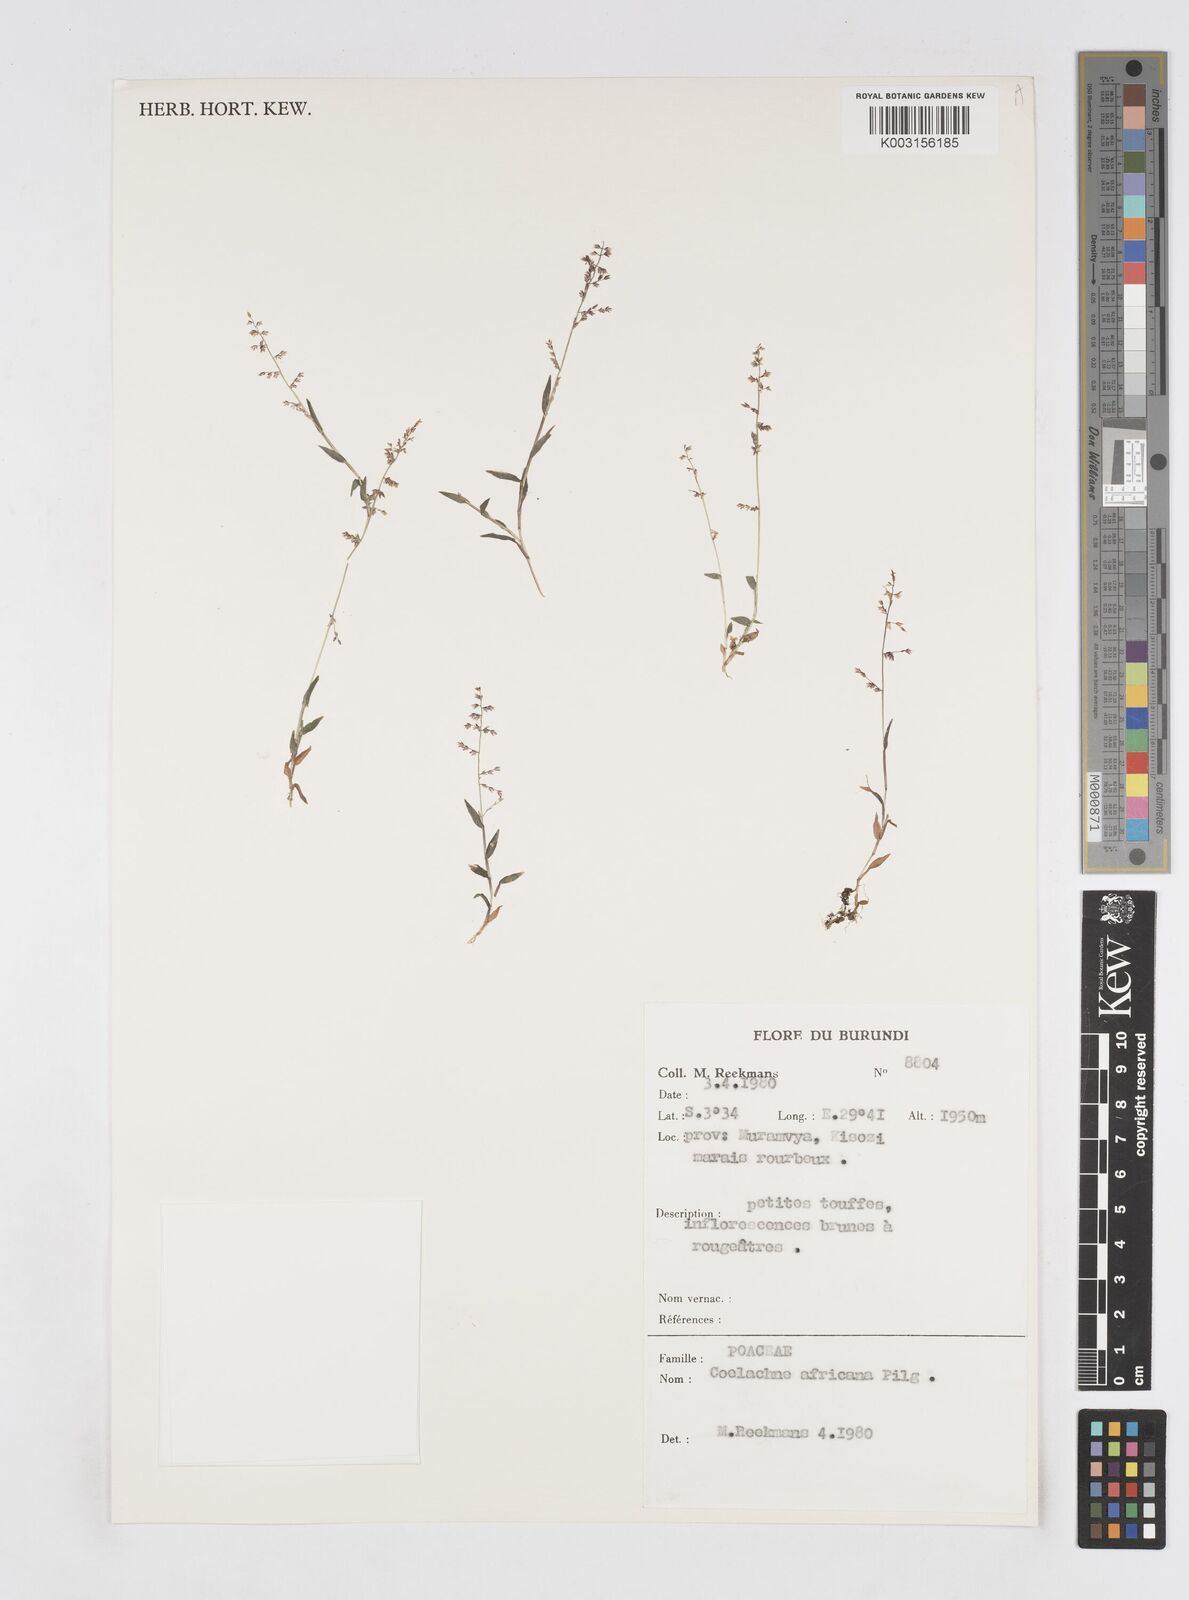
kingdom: Plantae
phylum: Tracheophyta
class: Liliopsida
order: Poales
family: Poaceae
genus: Coelachne
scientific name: Coelachne africana
